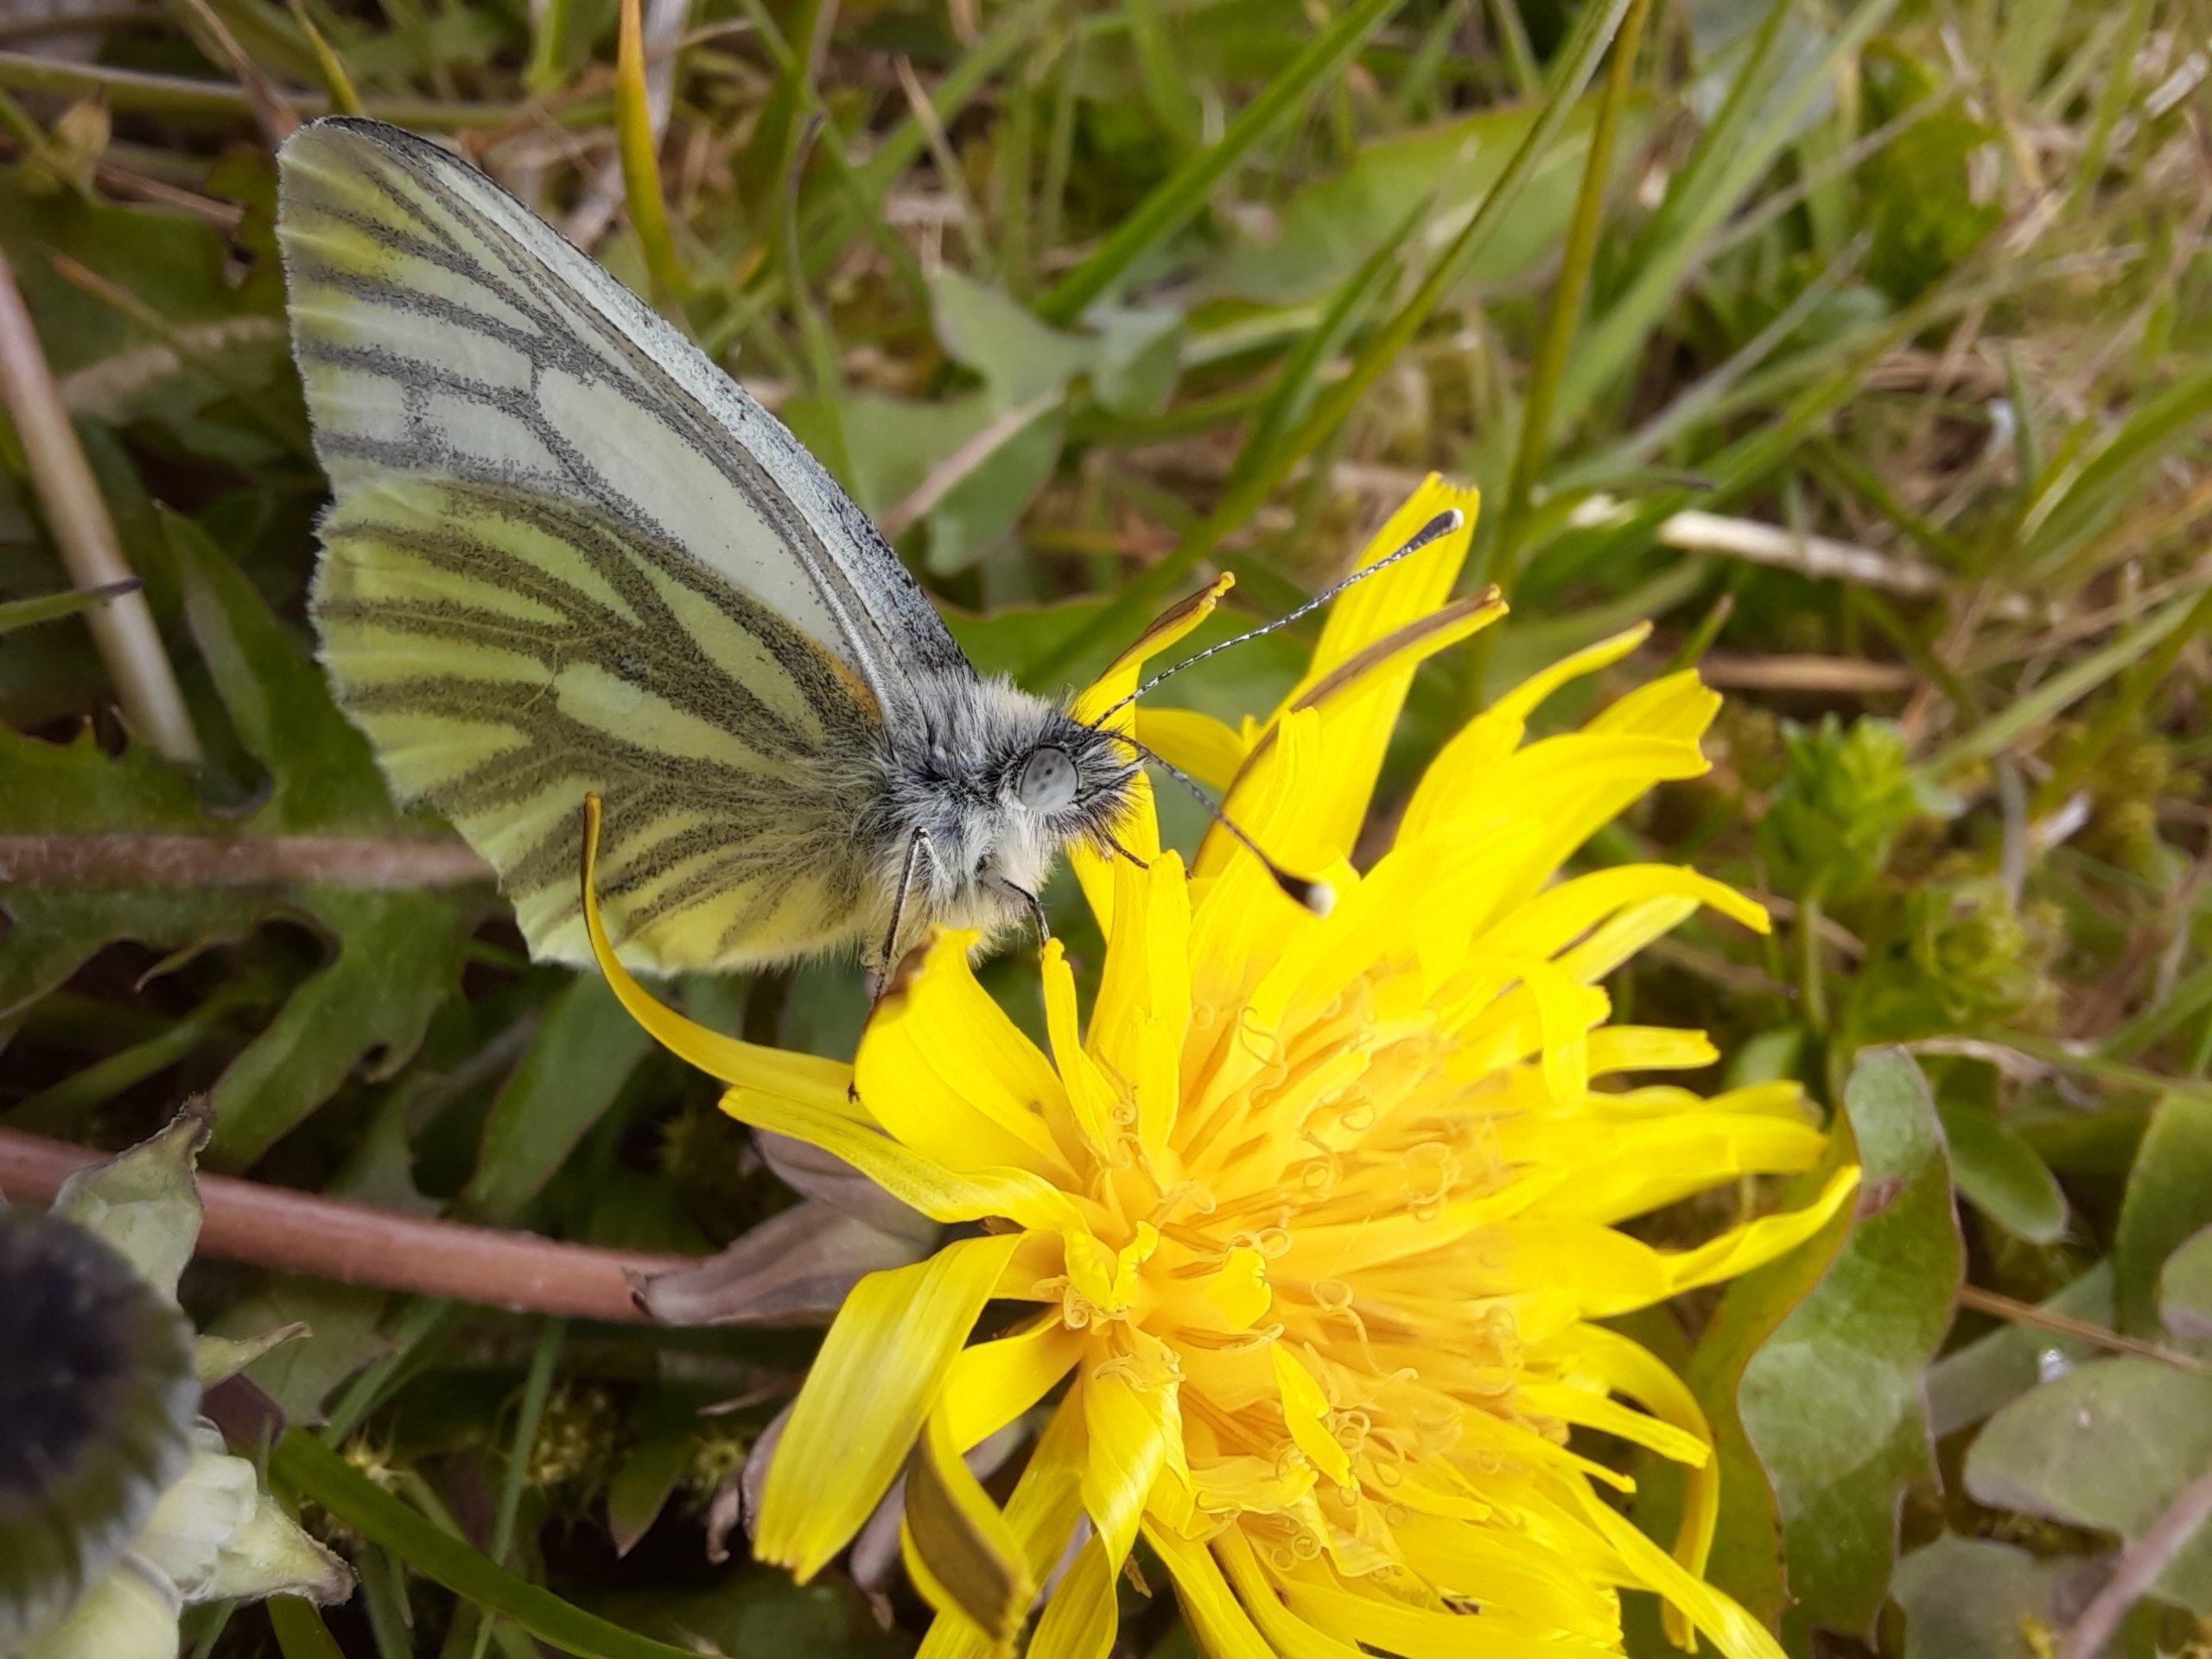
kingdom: Animalia
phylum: Arthropoda
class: Insecta
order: Lepidoptera
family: Pieridae
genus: Pieris
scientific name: Pieris napi
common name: Grønåret kålsommerfugl
